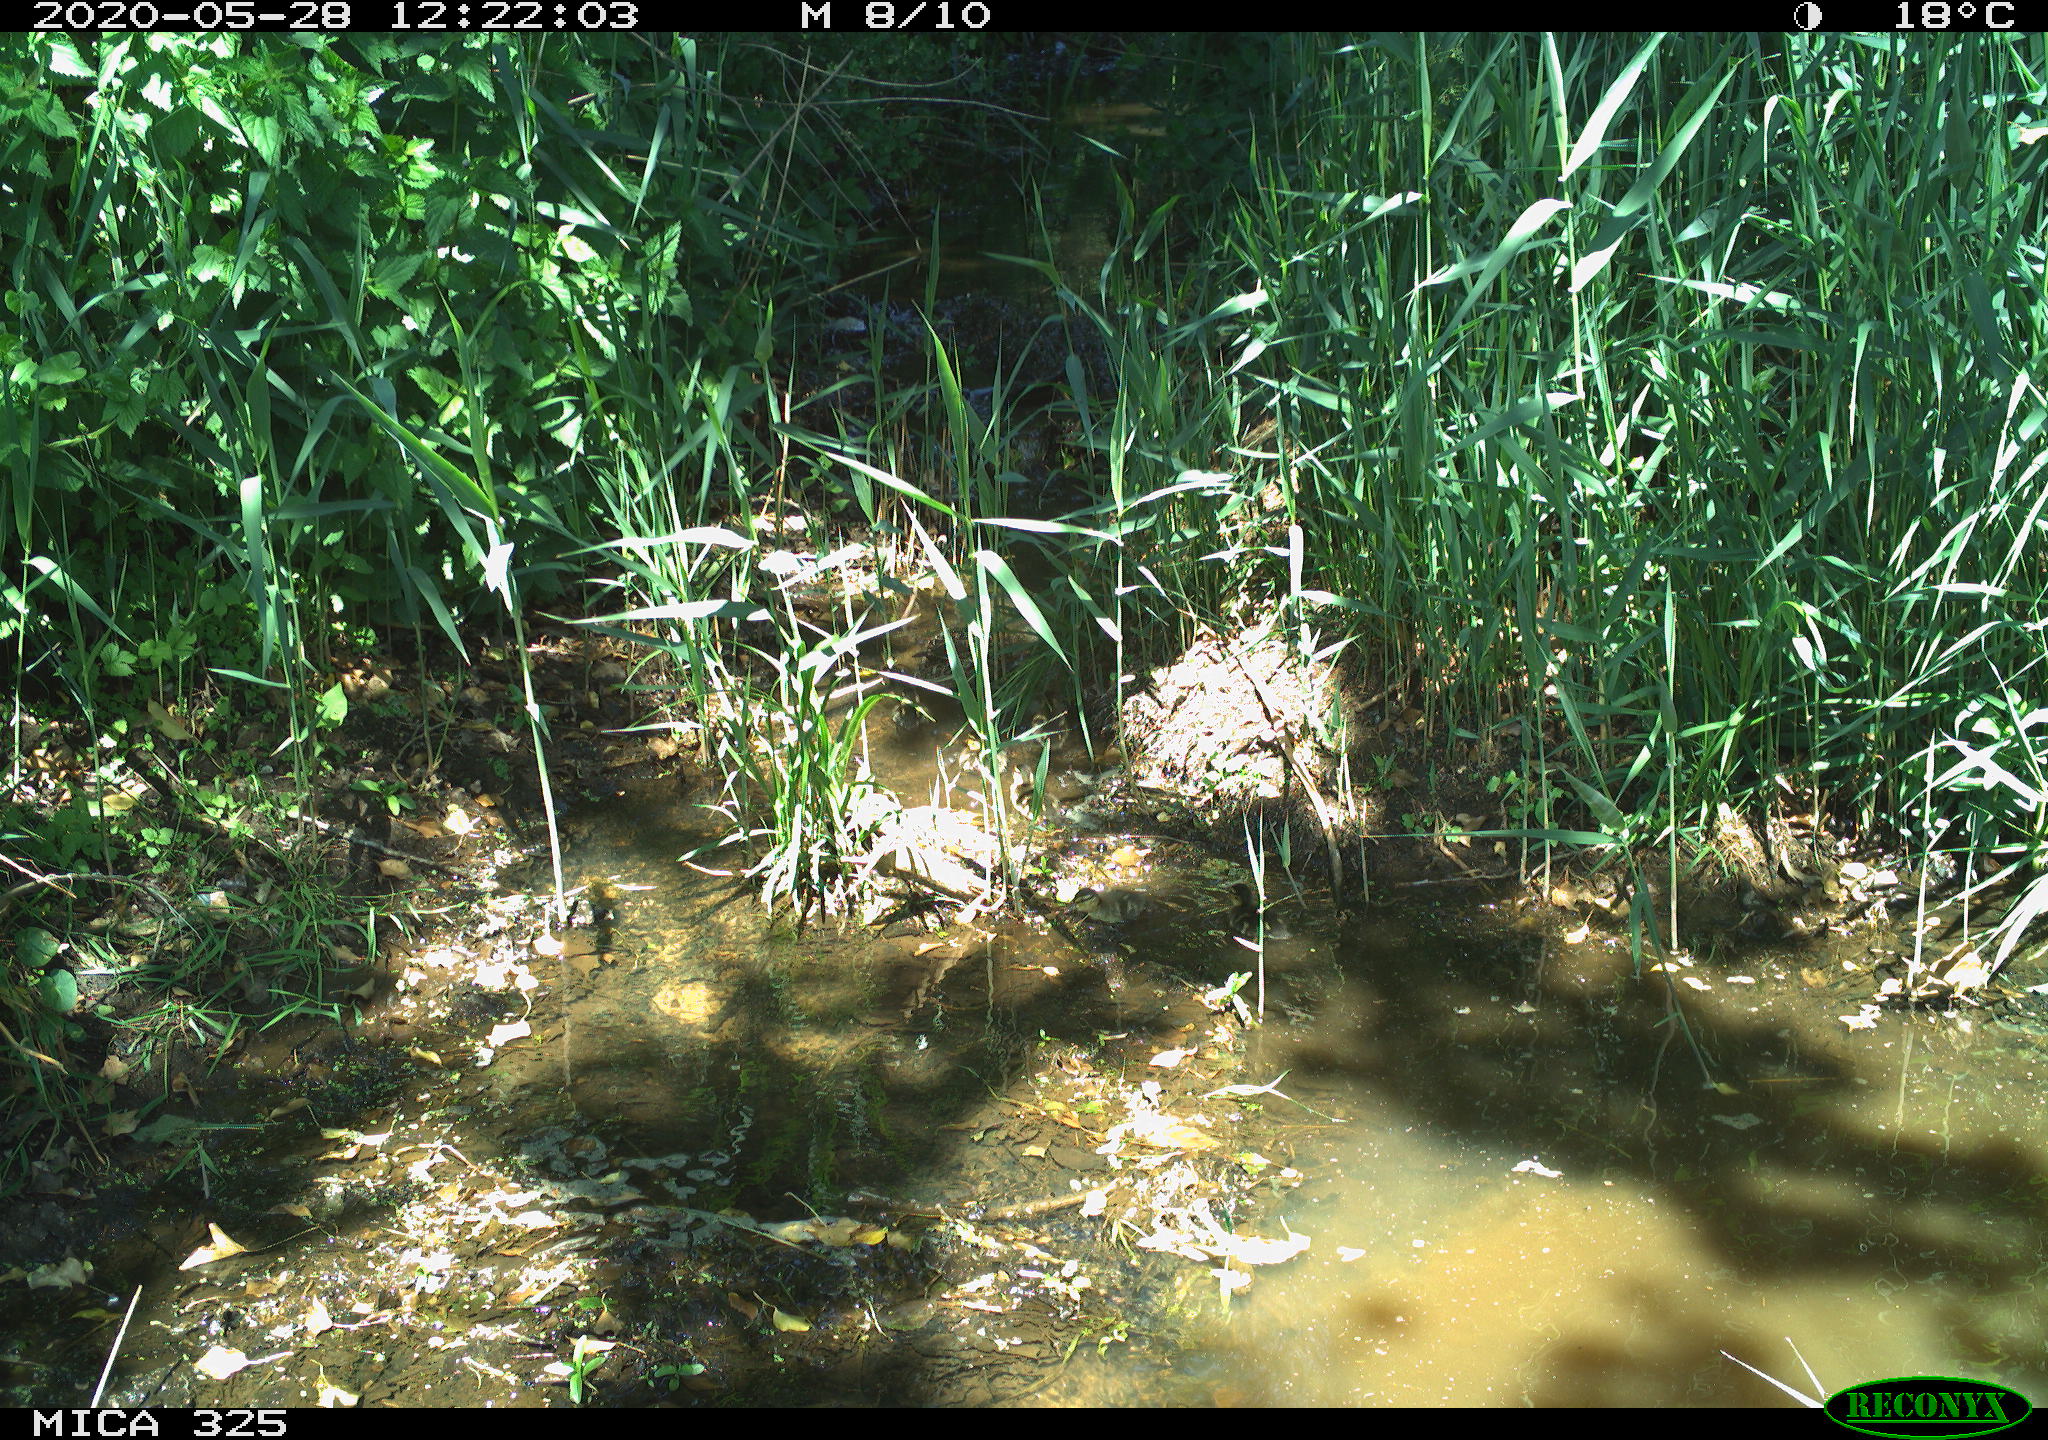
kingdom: Animalia
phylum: Chordata
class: Aves
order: Anseriformes
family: Anatidae
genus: Anas
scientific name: Anas platyrhynchos
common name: Mallard
